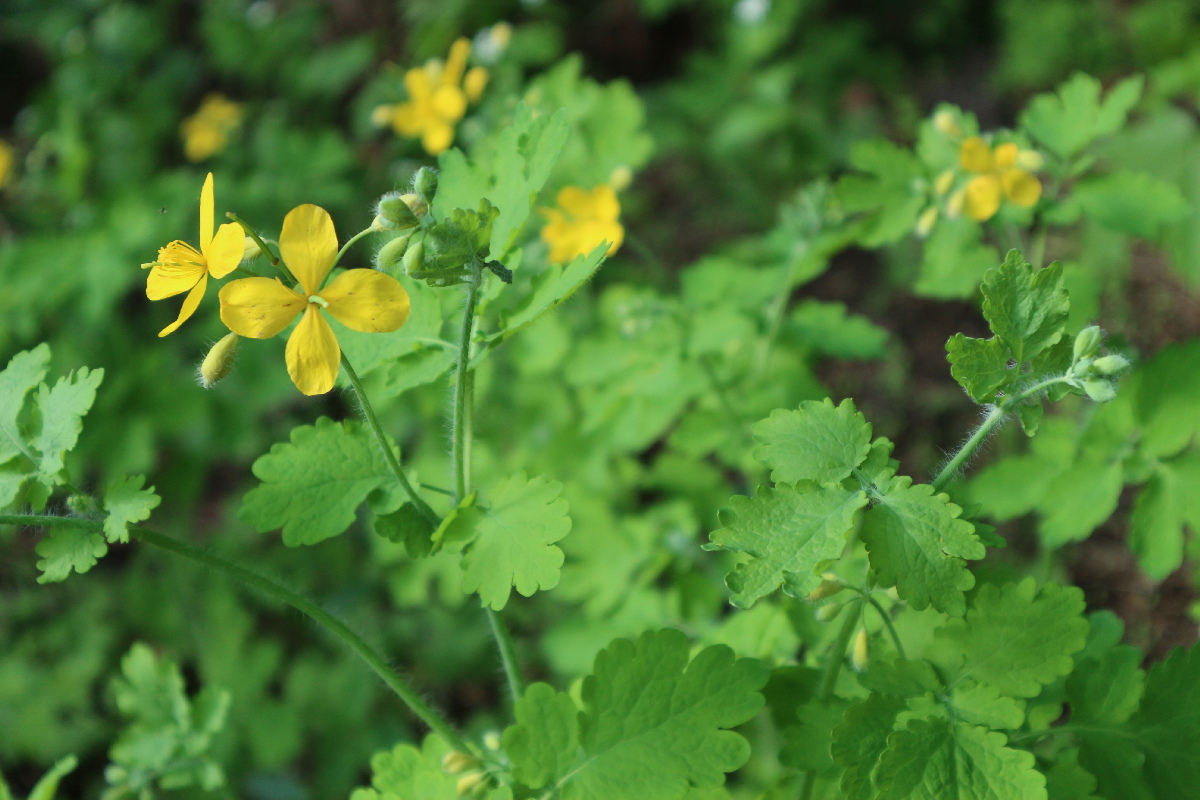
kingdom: Plantae
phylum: Tracheophyta
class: Magnoliopsida
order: Ranunculales
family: Papaveraceae
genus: Chelidonium
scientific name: Chelidonium majus
